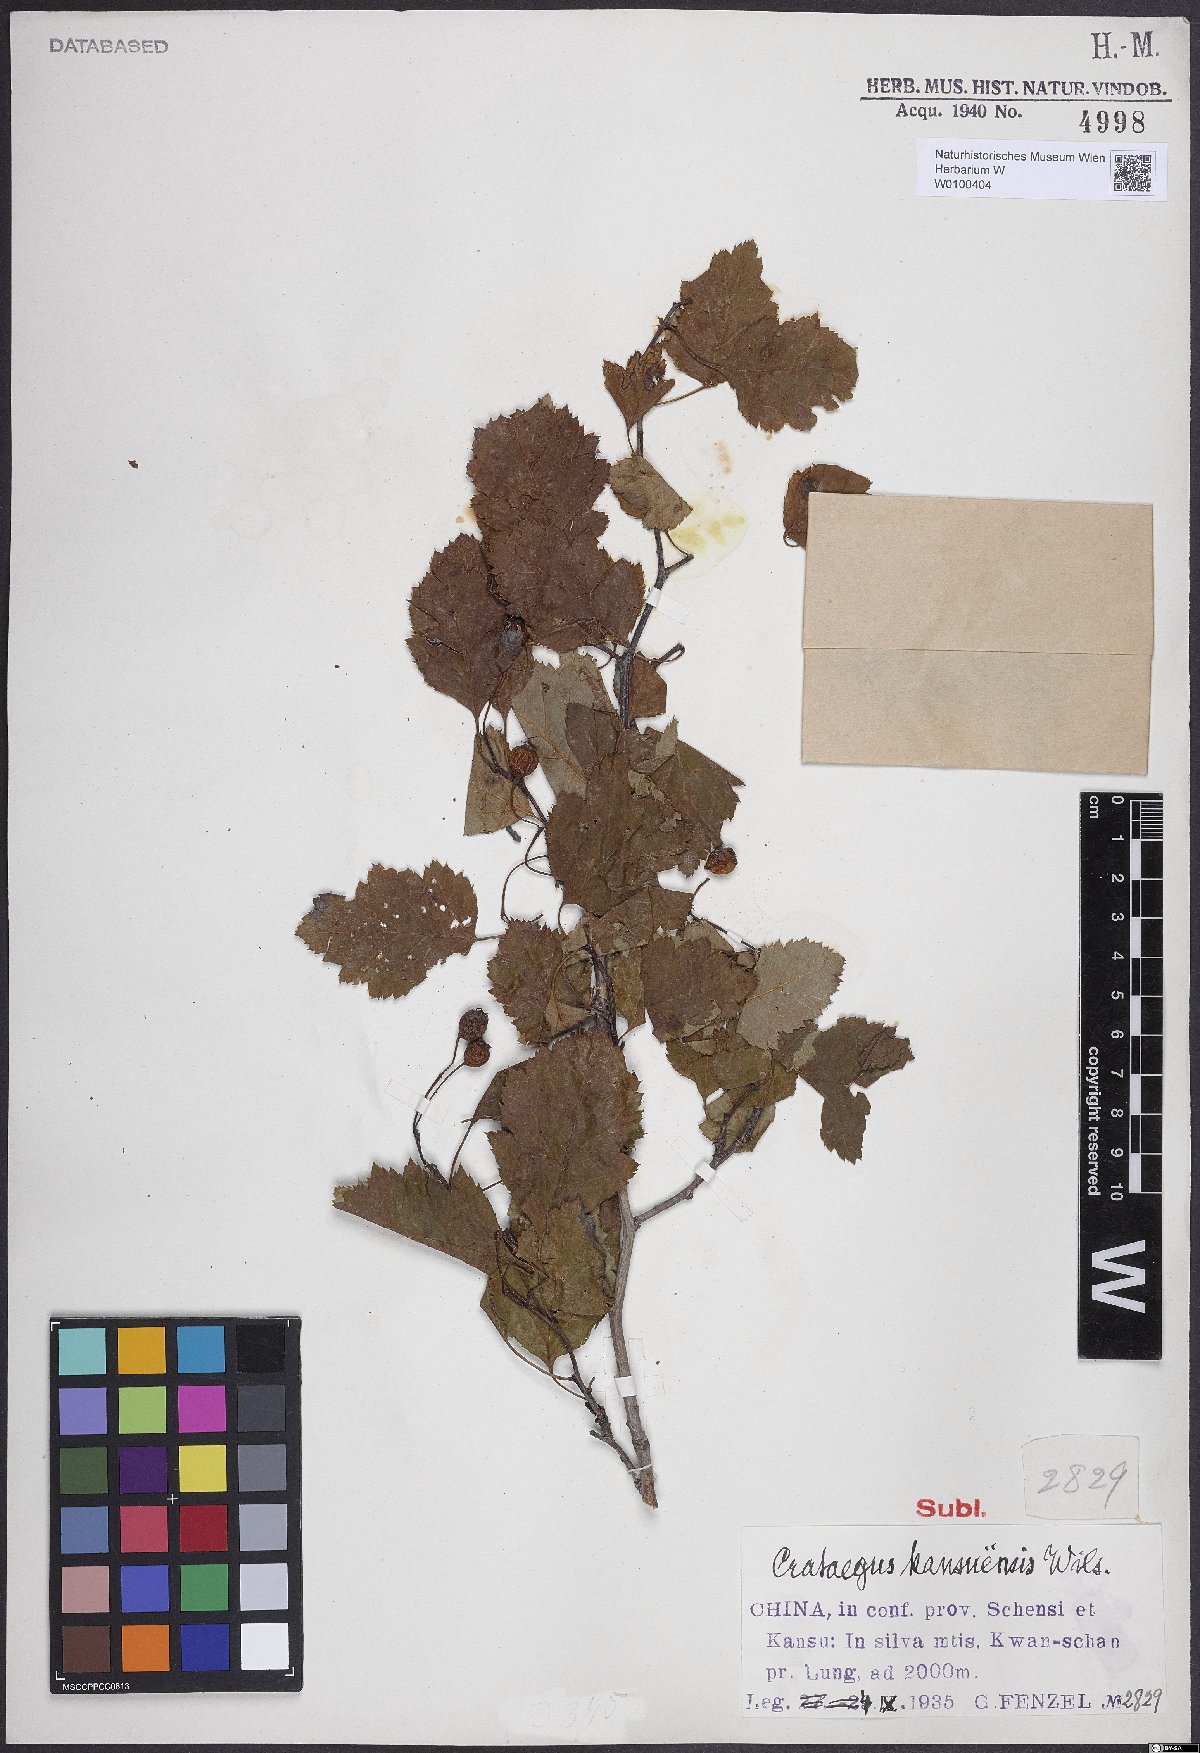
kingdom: Plantae
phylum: Tracheophyta
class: Magnoliopsida
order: Rosales
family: Rosaceae
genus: Crataegus
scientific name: Crataegus kansuensis
